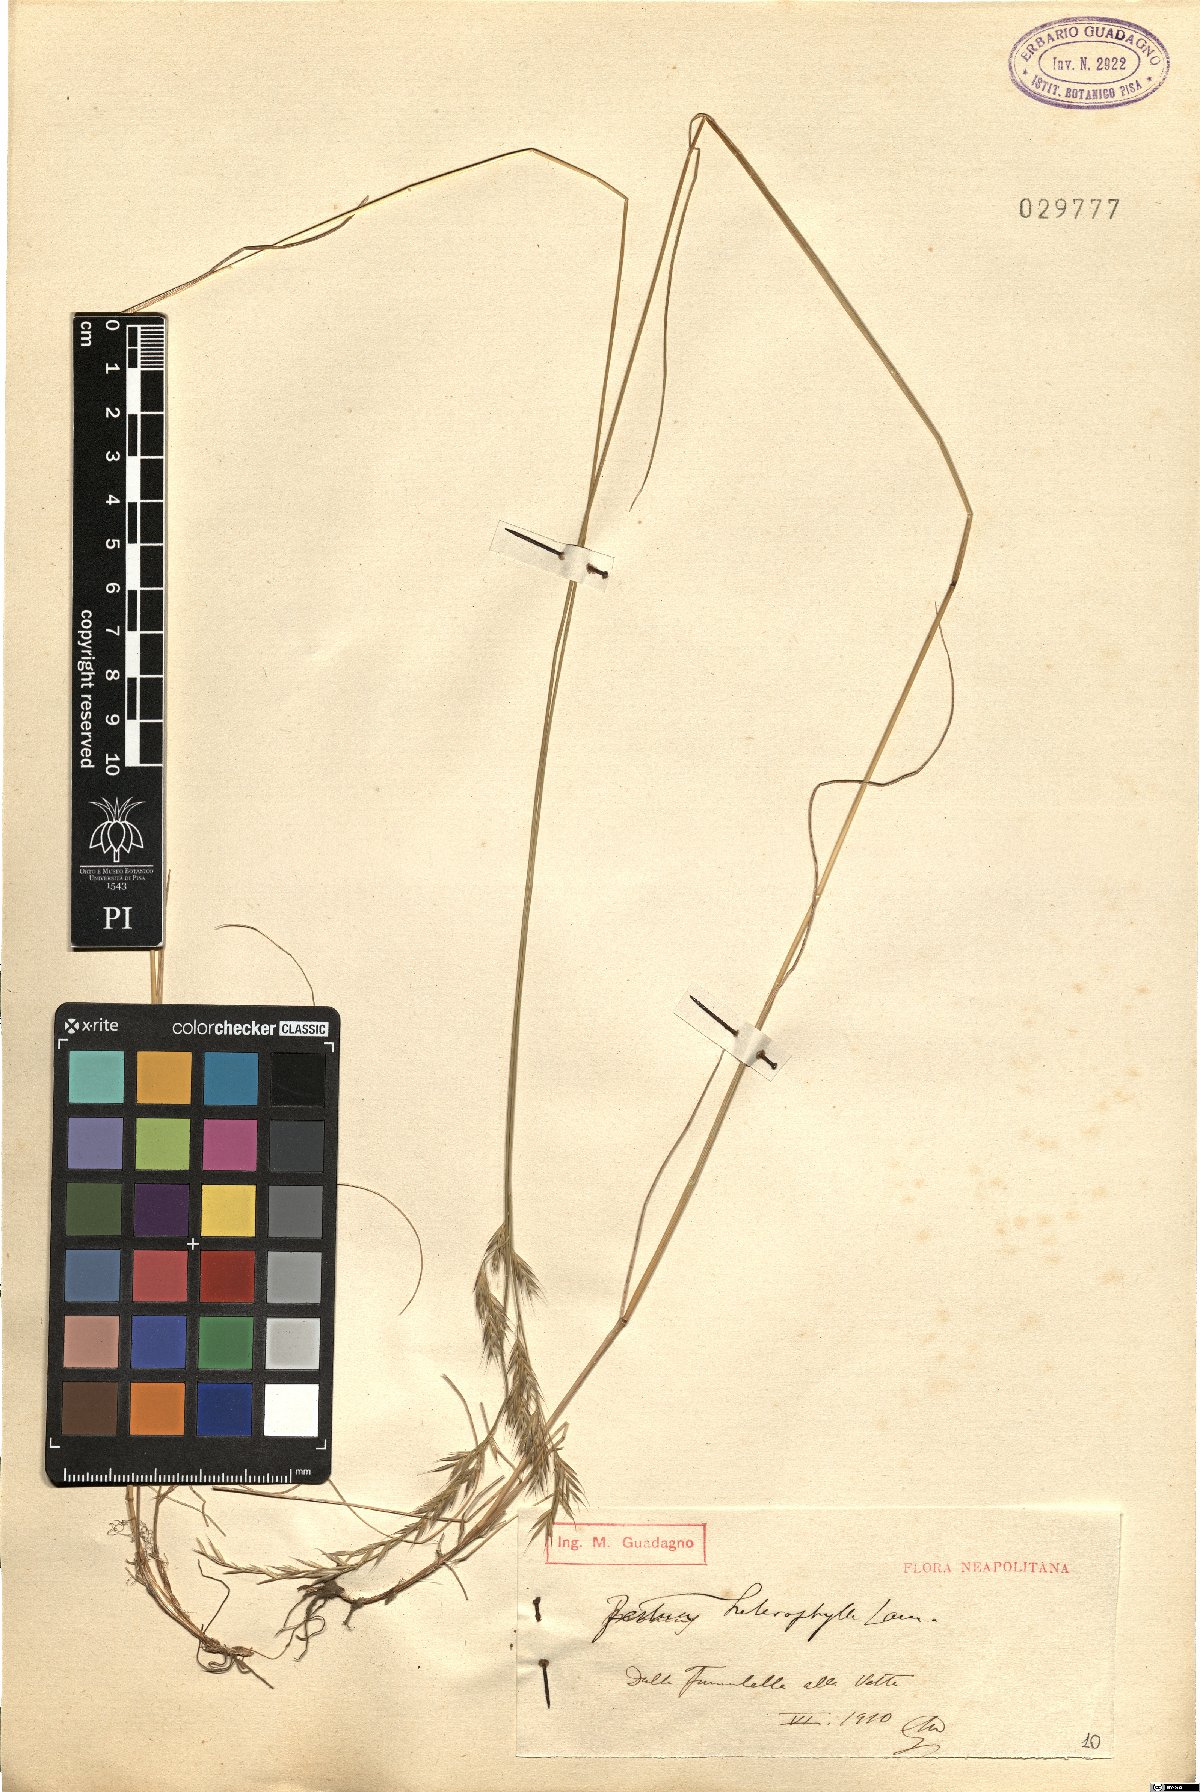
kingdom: Plantae
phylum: Tracheophyta
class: Liliopsida
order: Poales
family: Poaceae
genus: Festuca
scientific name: Festuca heterophylla
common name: Various-leaved fescue
